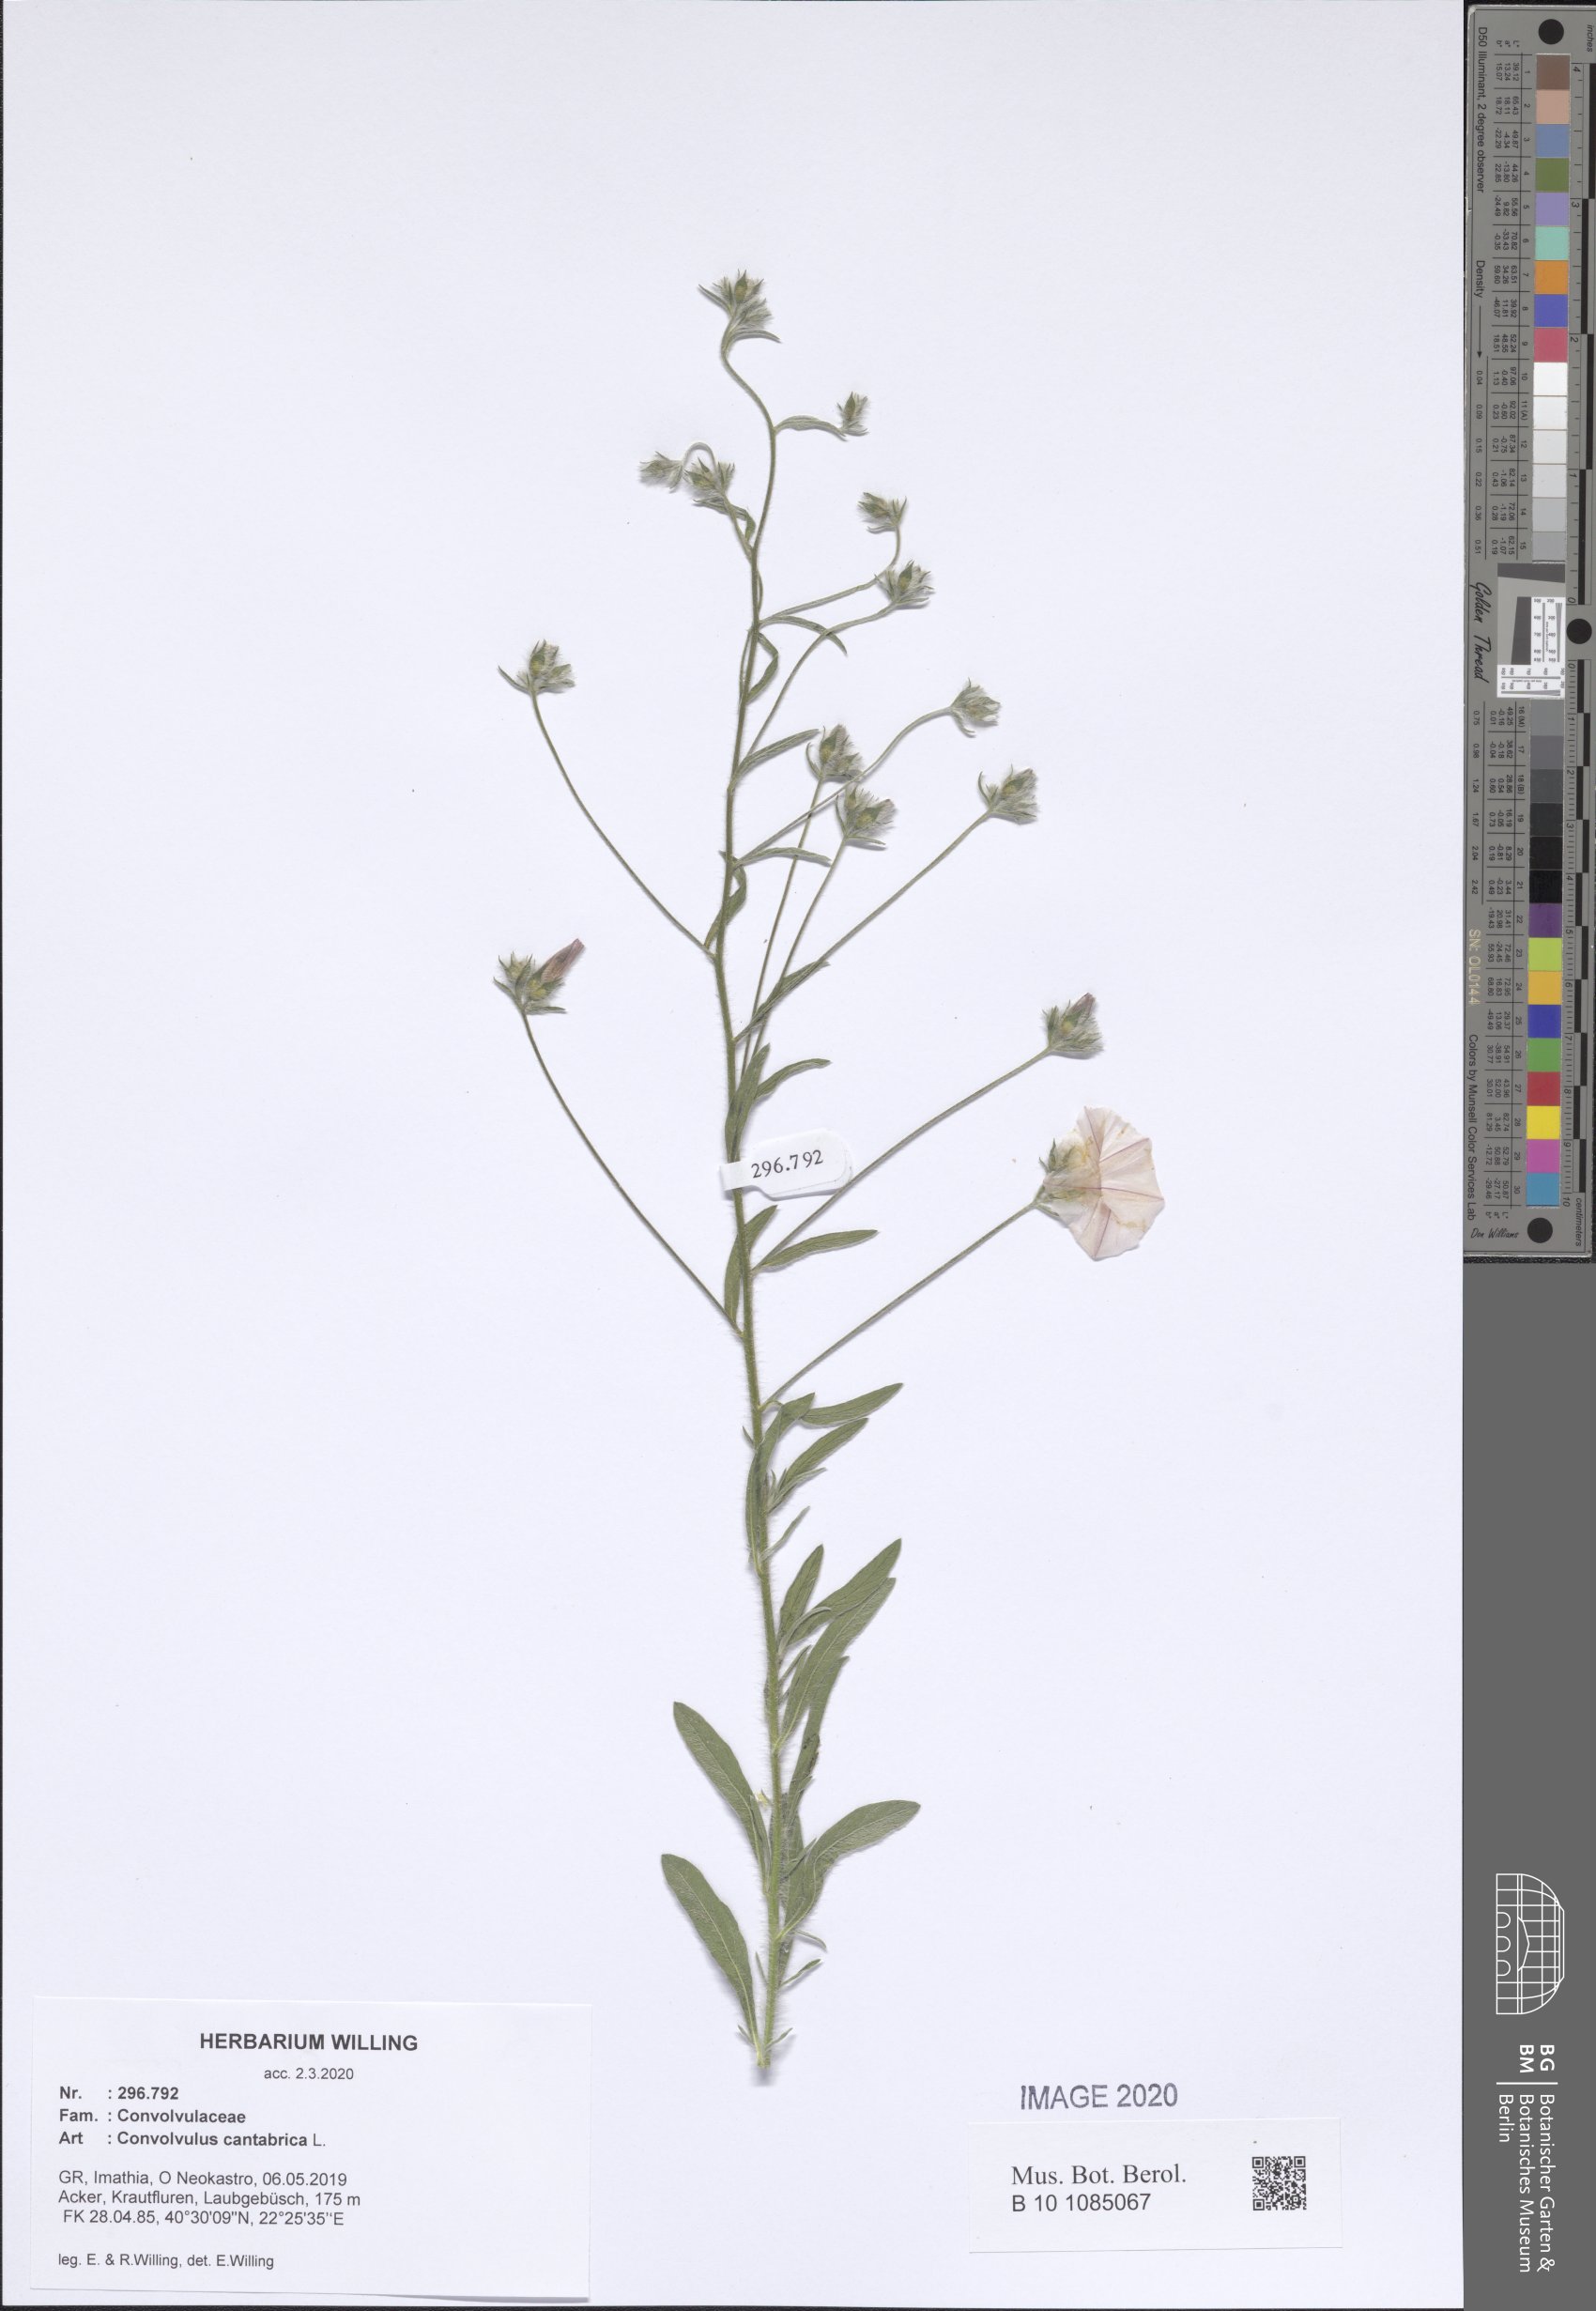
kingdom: Plantae
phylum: Tracheophyta
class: Magnoliopsida
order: Solanales
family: Convolvulaceae
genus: Convolvulus
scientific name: Convolvulus cantabrica
